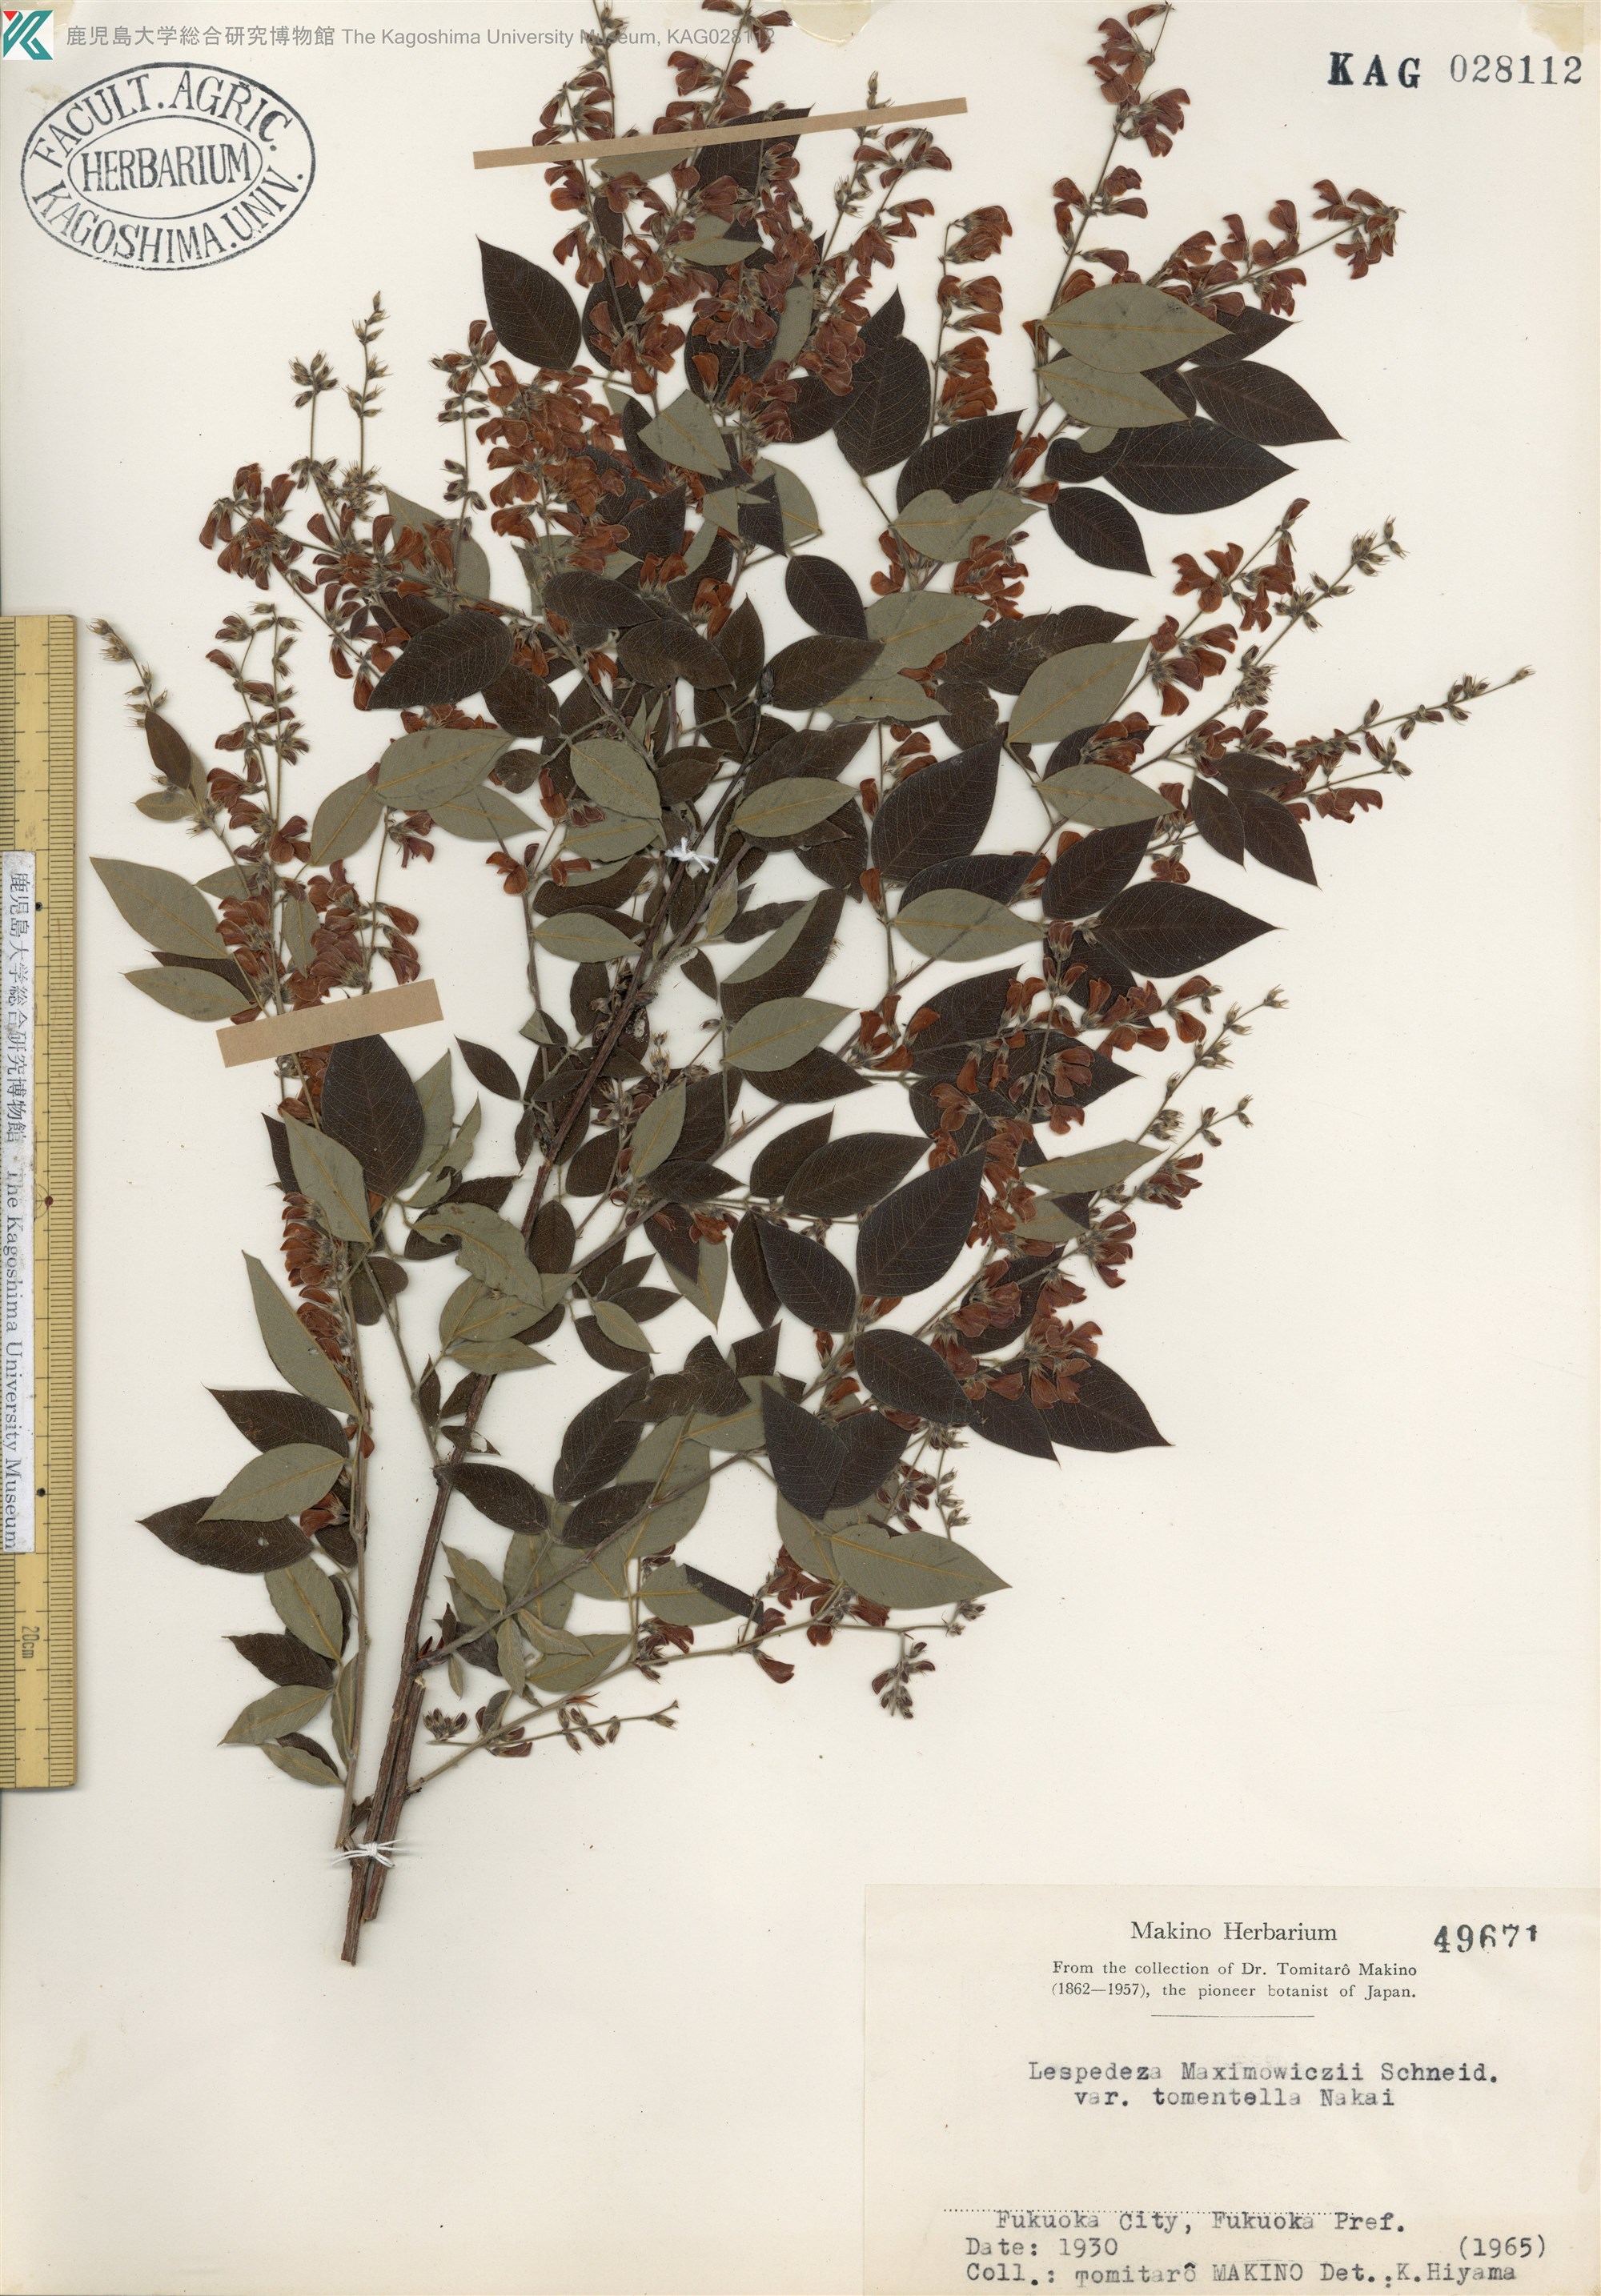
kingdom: Plantae
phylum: Tracheophyta
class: Magnoliopsida
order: Fabales
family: Fabaceae
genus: Lespedeza
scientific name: Lespedeza maximowiczii
